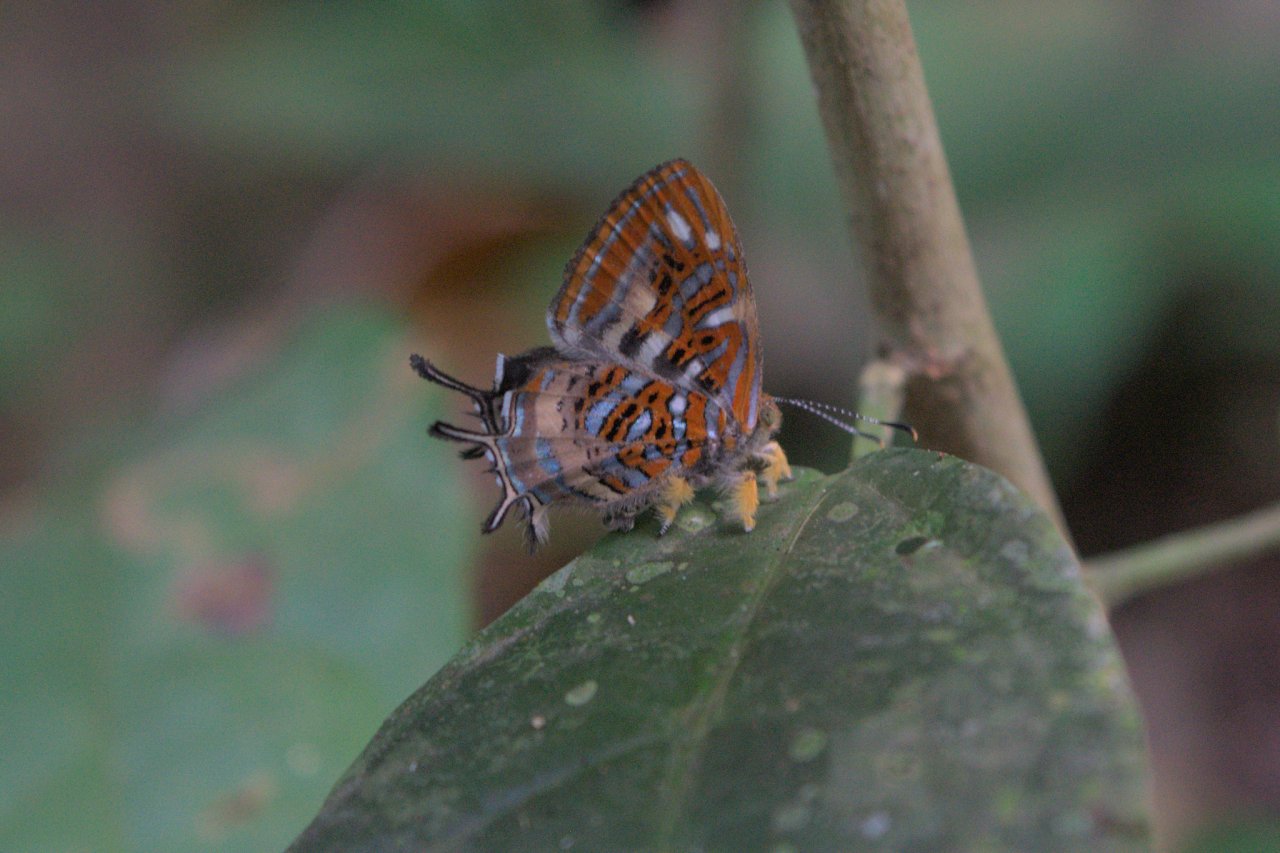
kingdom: Animalia
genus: Charis
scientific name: Charis chrysus
